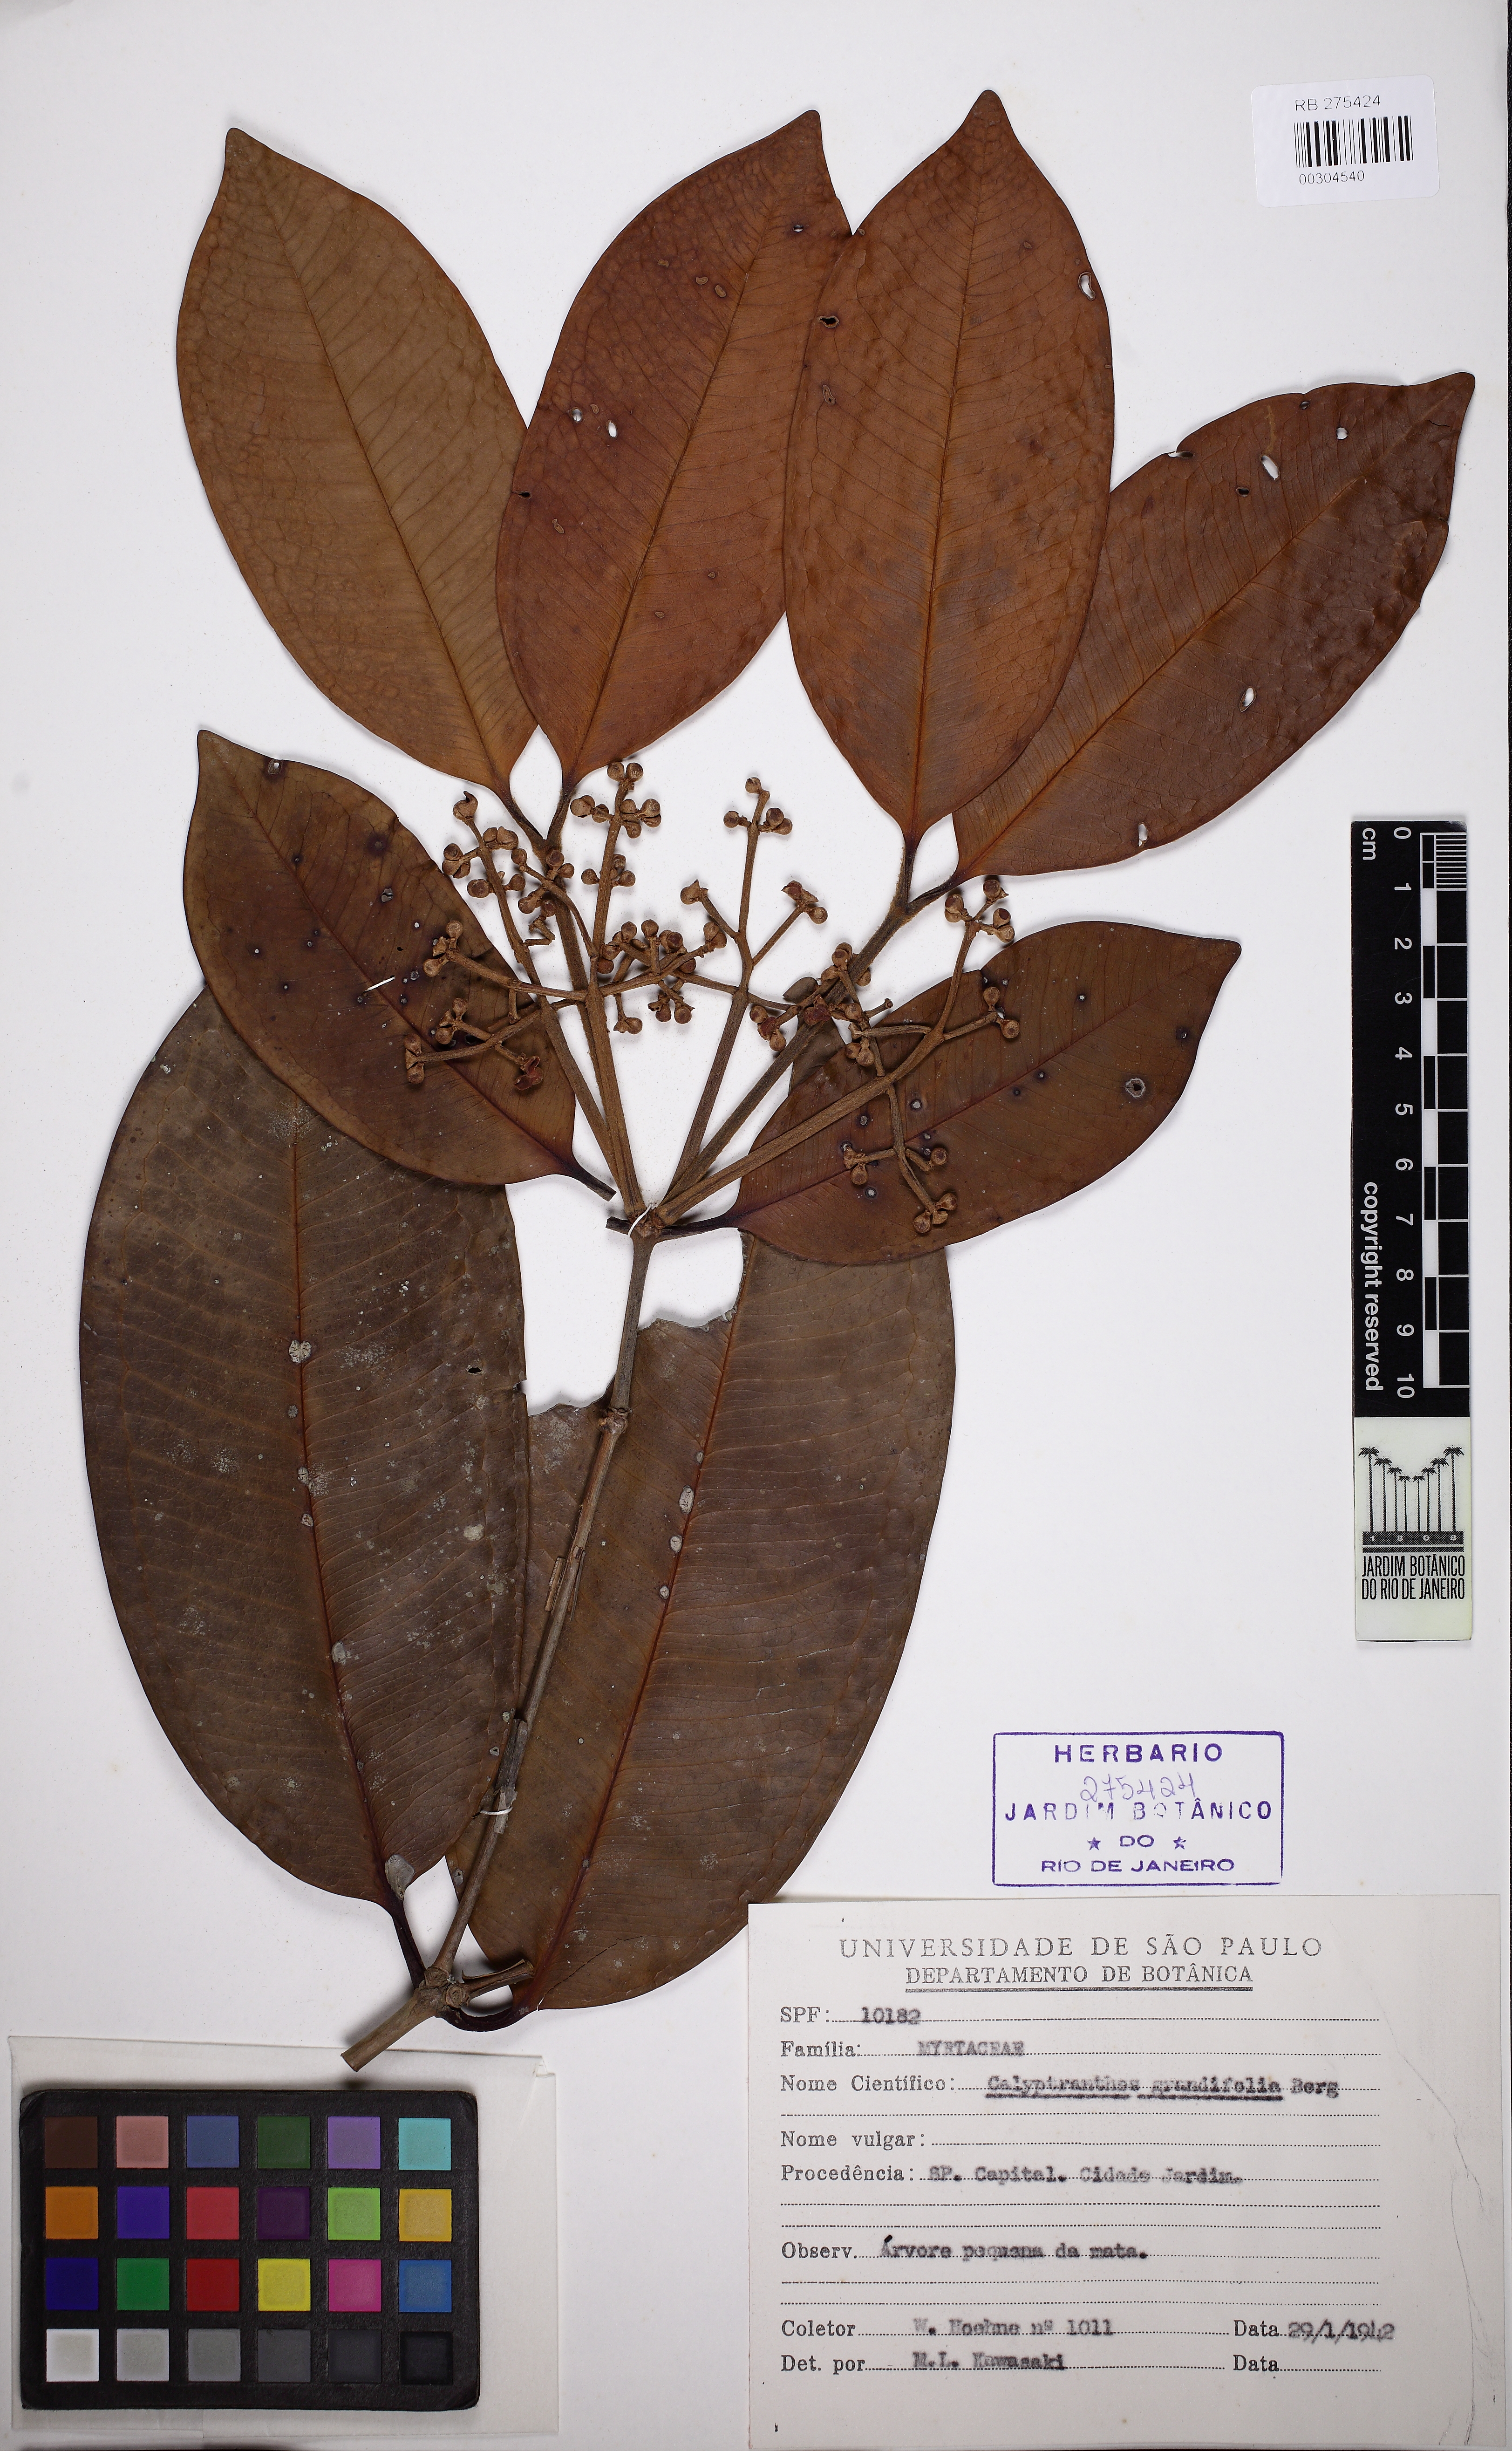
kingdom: Plantae
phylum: Tracheophyta
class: Magnoliopsida
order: Myrtales
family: Myrtaceae
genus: Calyptranthes
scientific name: Calyptranthes grandifolia
